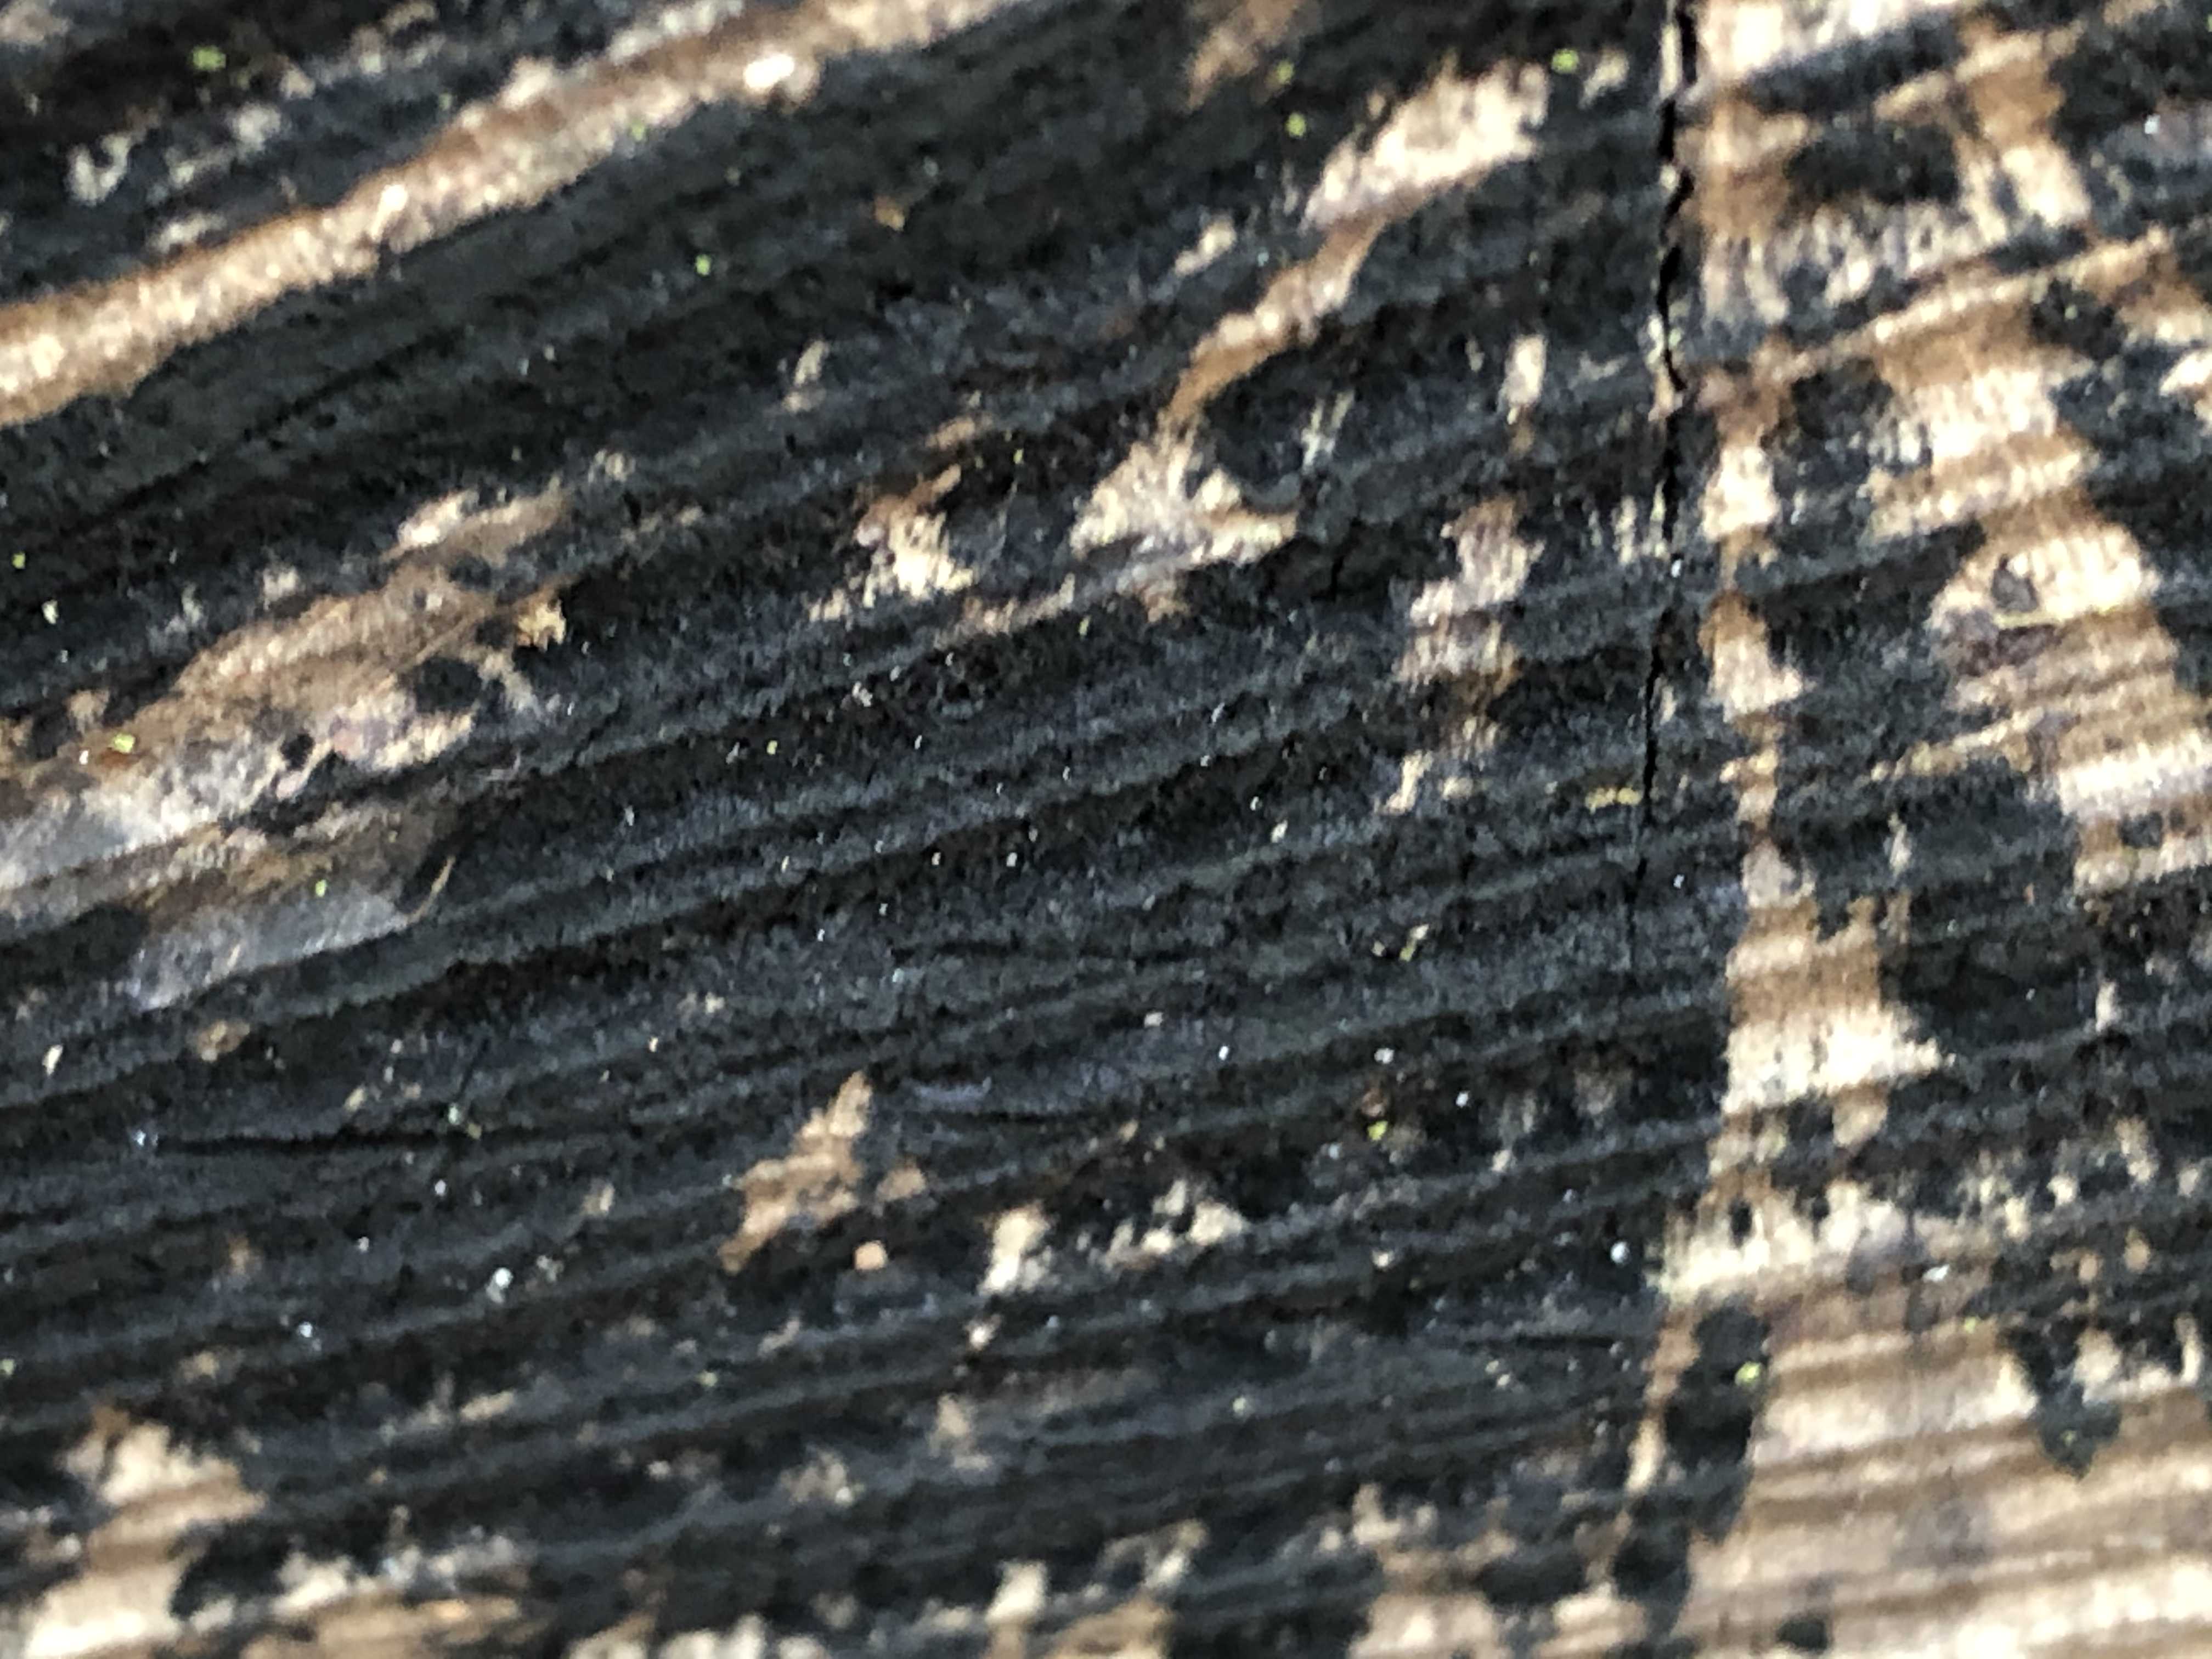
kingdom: Fungi
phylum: Ascomycota
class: Leotiomycetes
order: Helotiales
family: Helotiaceae
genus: Bispora
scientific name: Bispora pallescens
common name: måtte-snitskive
